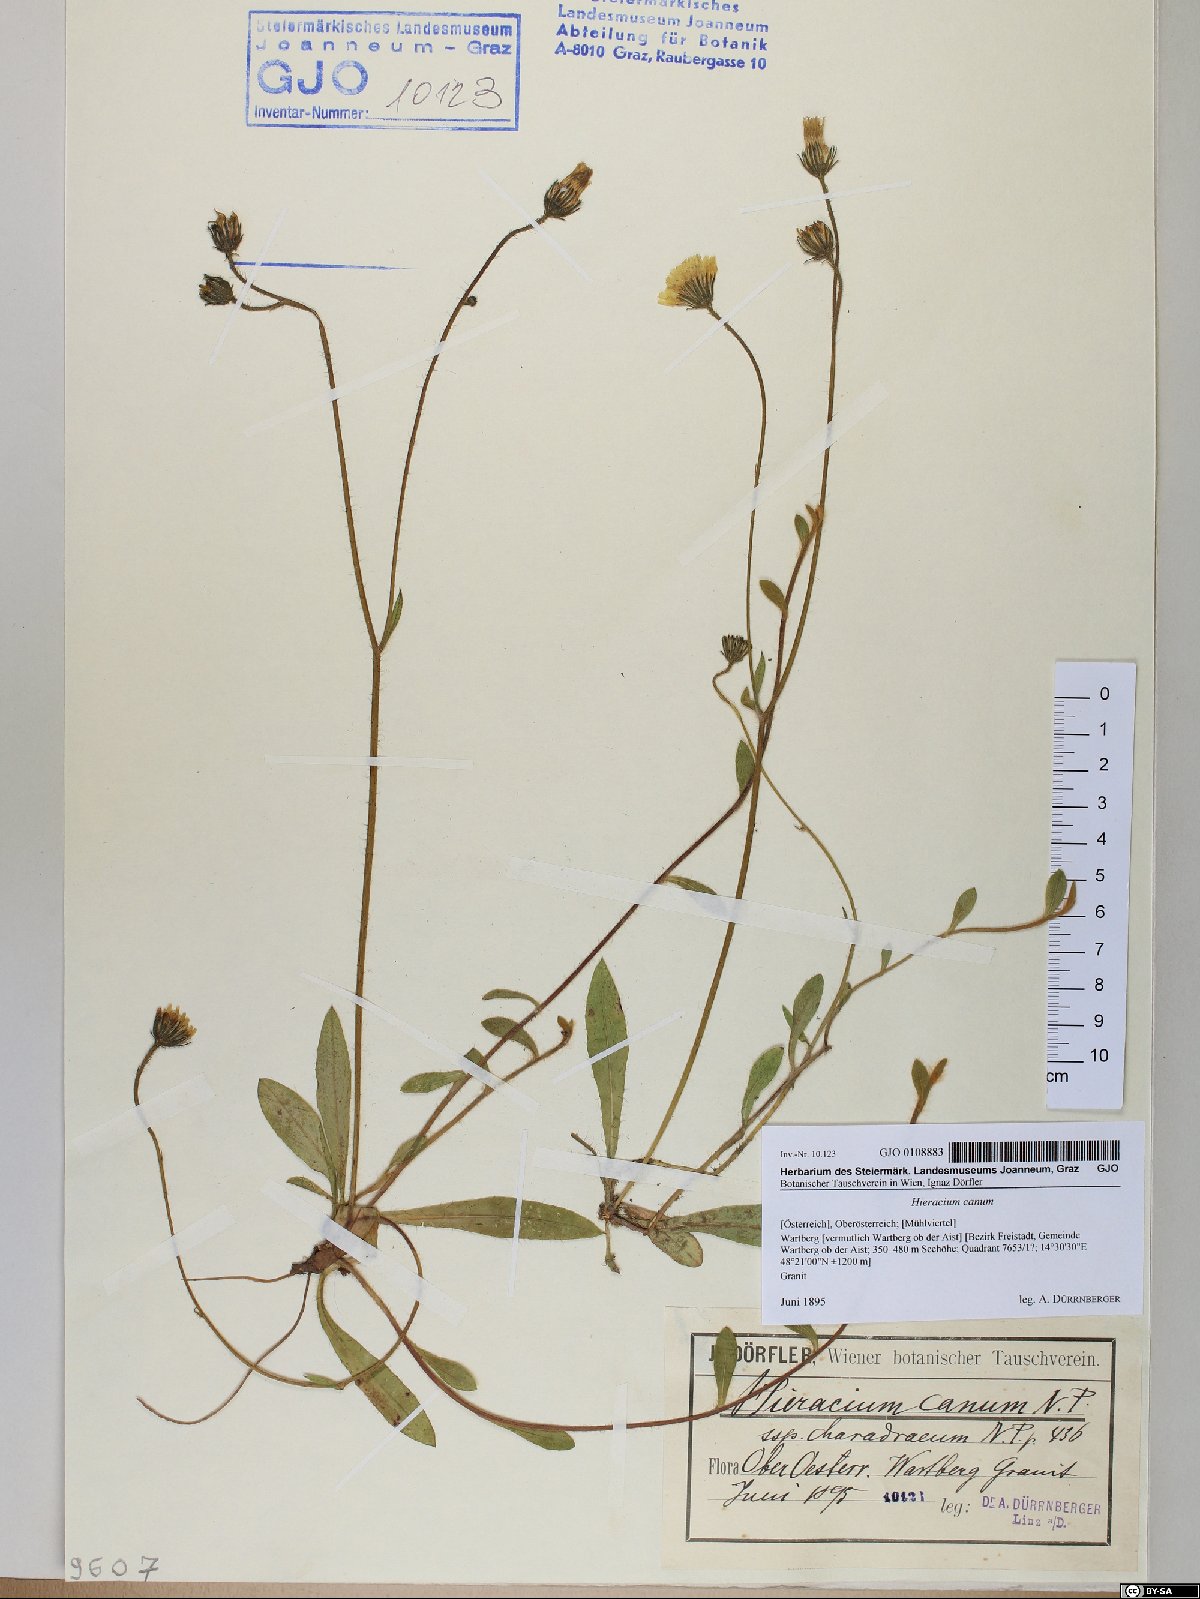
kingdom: Plantae
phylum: Tracheophyta
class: Magnoliopsida
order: Asterales
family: Asteraceae
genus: Pilosella
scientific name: Pilosella cana
